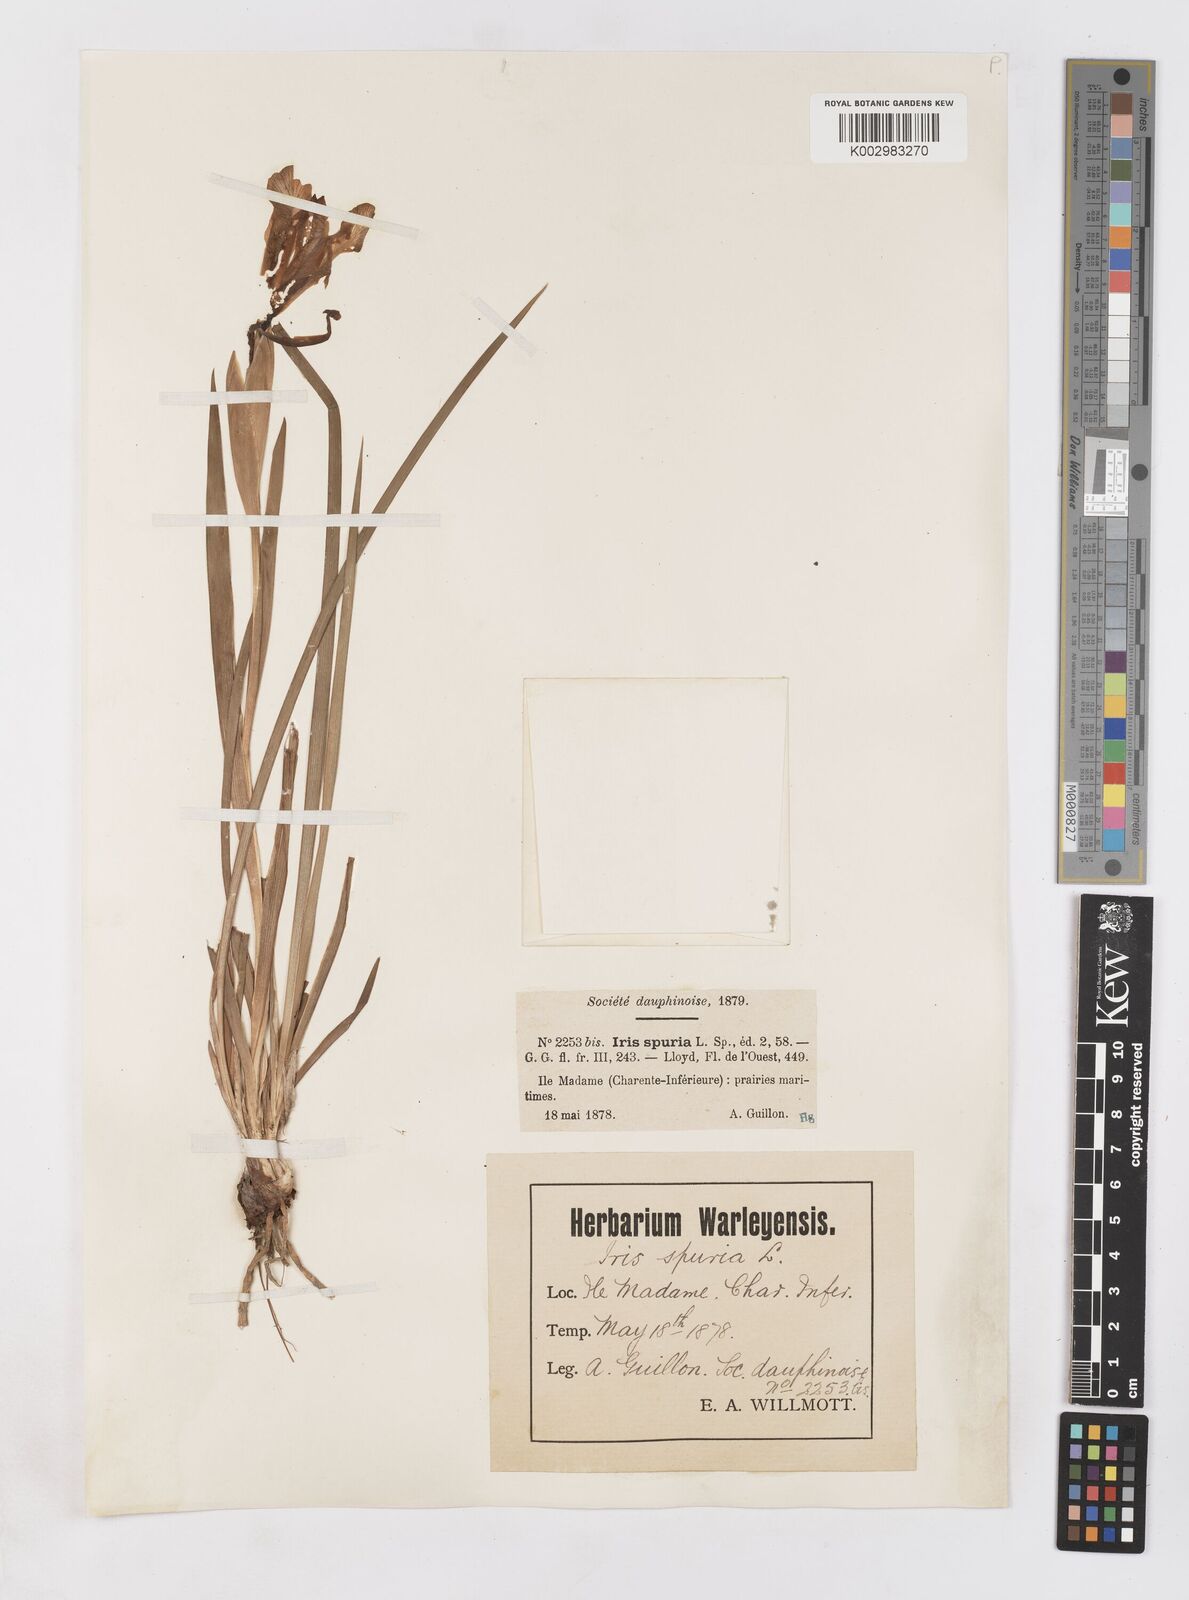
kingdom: Plantae
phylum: Tracheophyta
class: Liliopsida
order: Asparagales
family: Iridaceae
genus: Iris
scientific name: Iris spuria
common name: Blue iris
